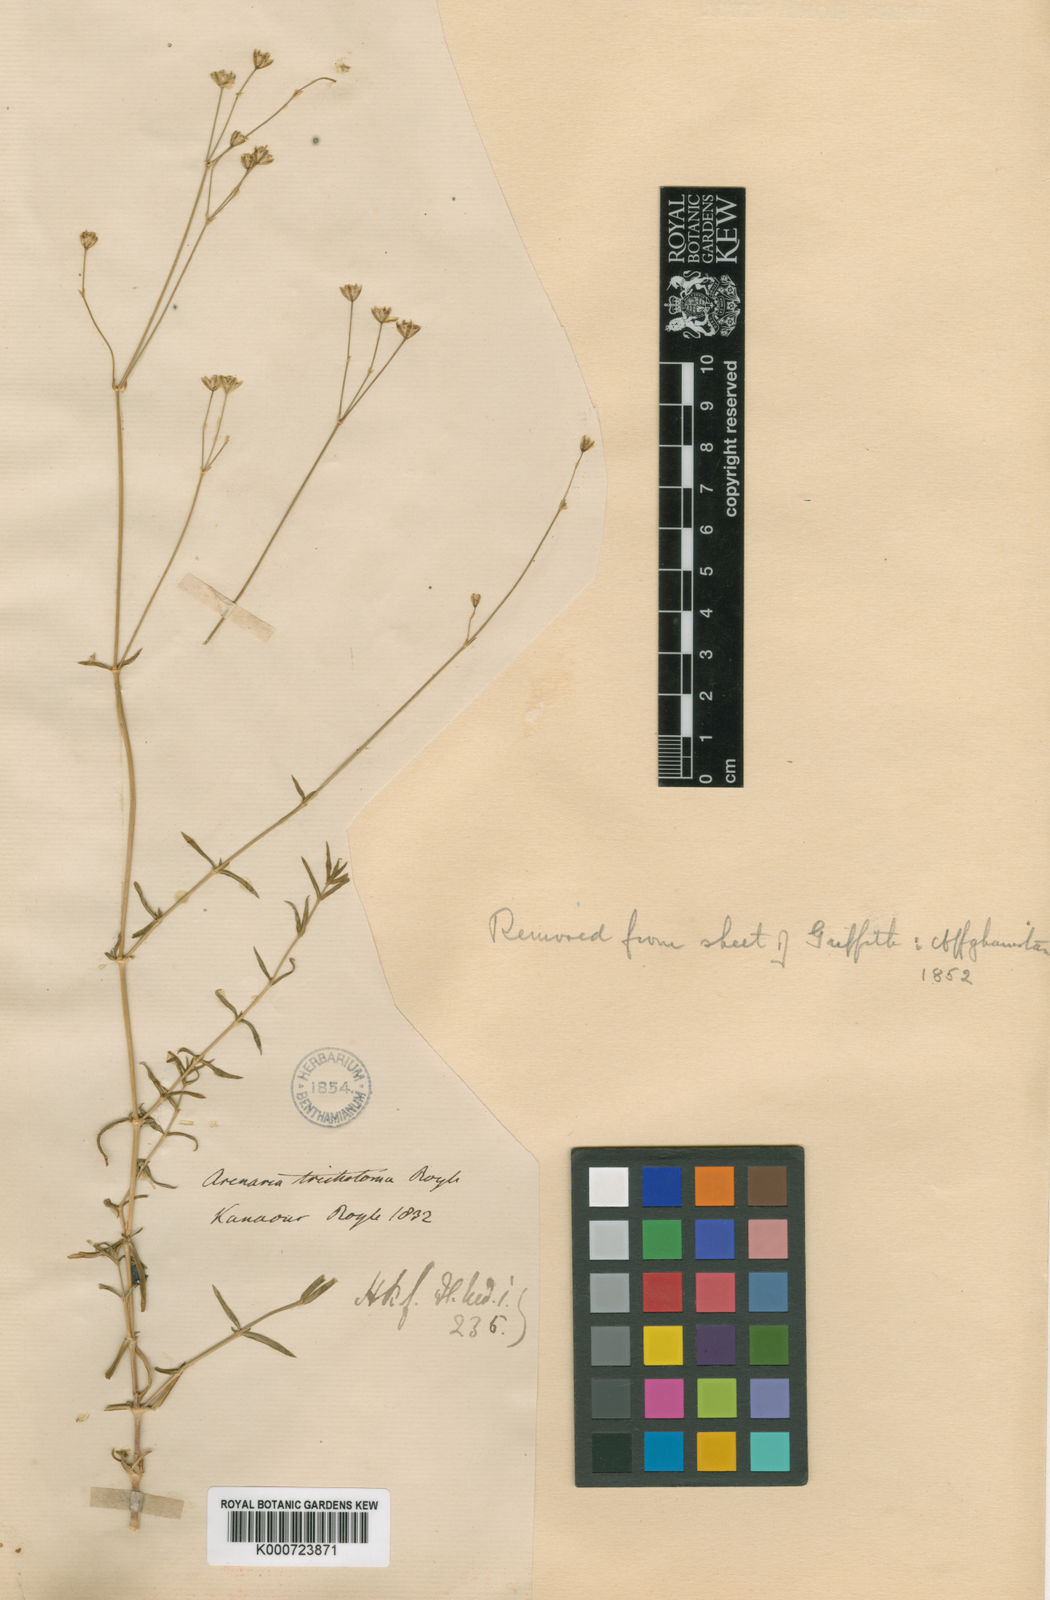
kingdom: Plantae
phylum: Tracheophyta
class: Magnoliopsida
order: Caryophyllales
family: Caryophyllaceae
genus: Arenaria
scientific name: Arenaria compressa
